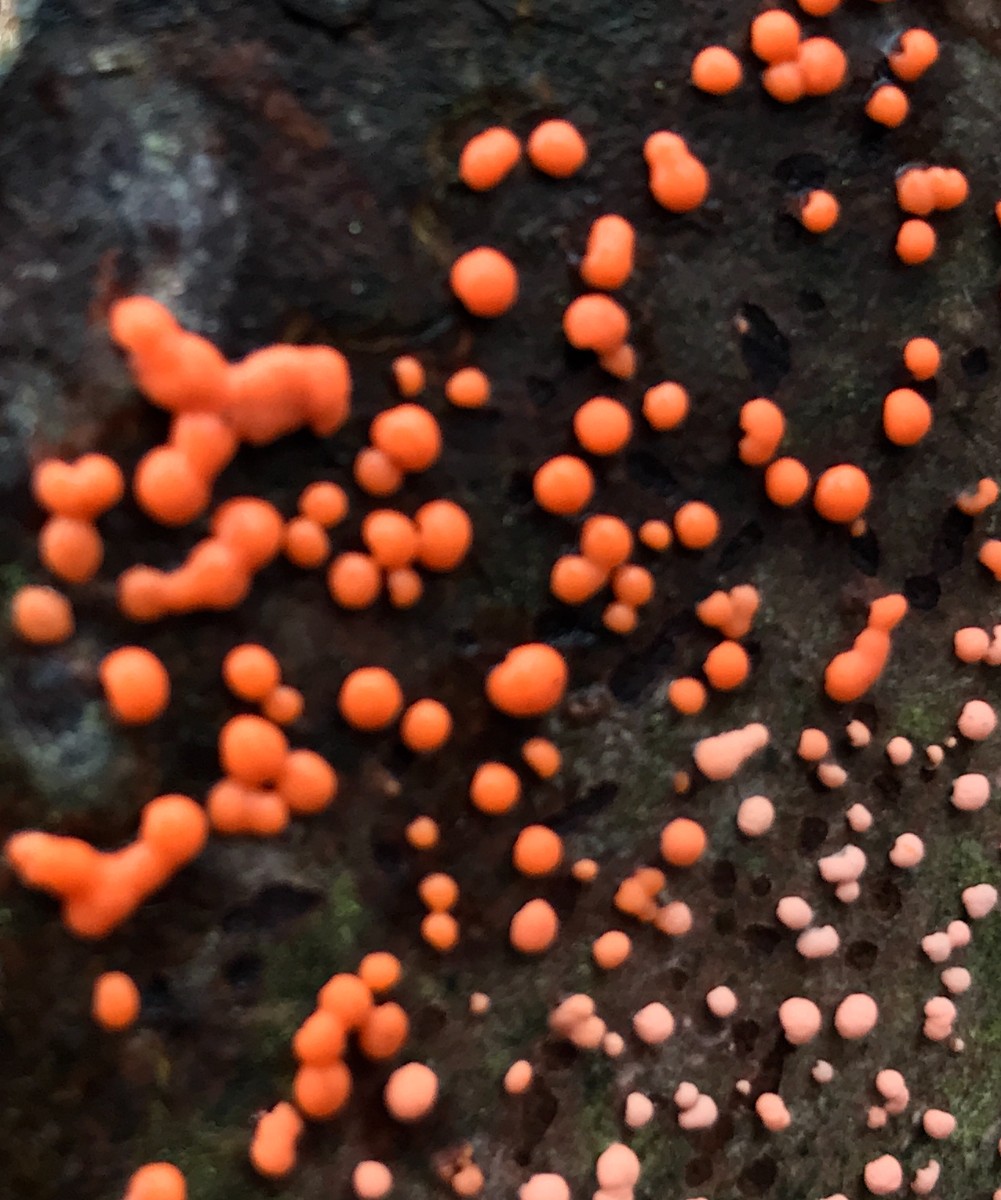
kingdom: Fungi
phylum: Ascomycota
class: Sordariomycetes
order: Hypocreales
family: Nectriaceae
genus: Nectria
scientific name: Nectria cinnabarina
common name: almindelig cinnobersvamp
